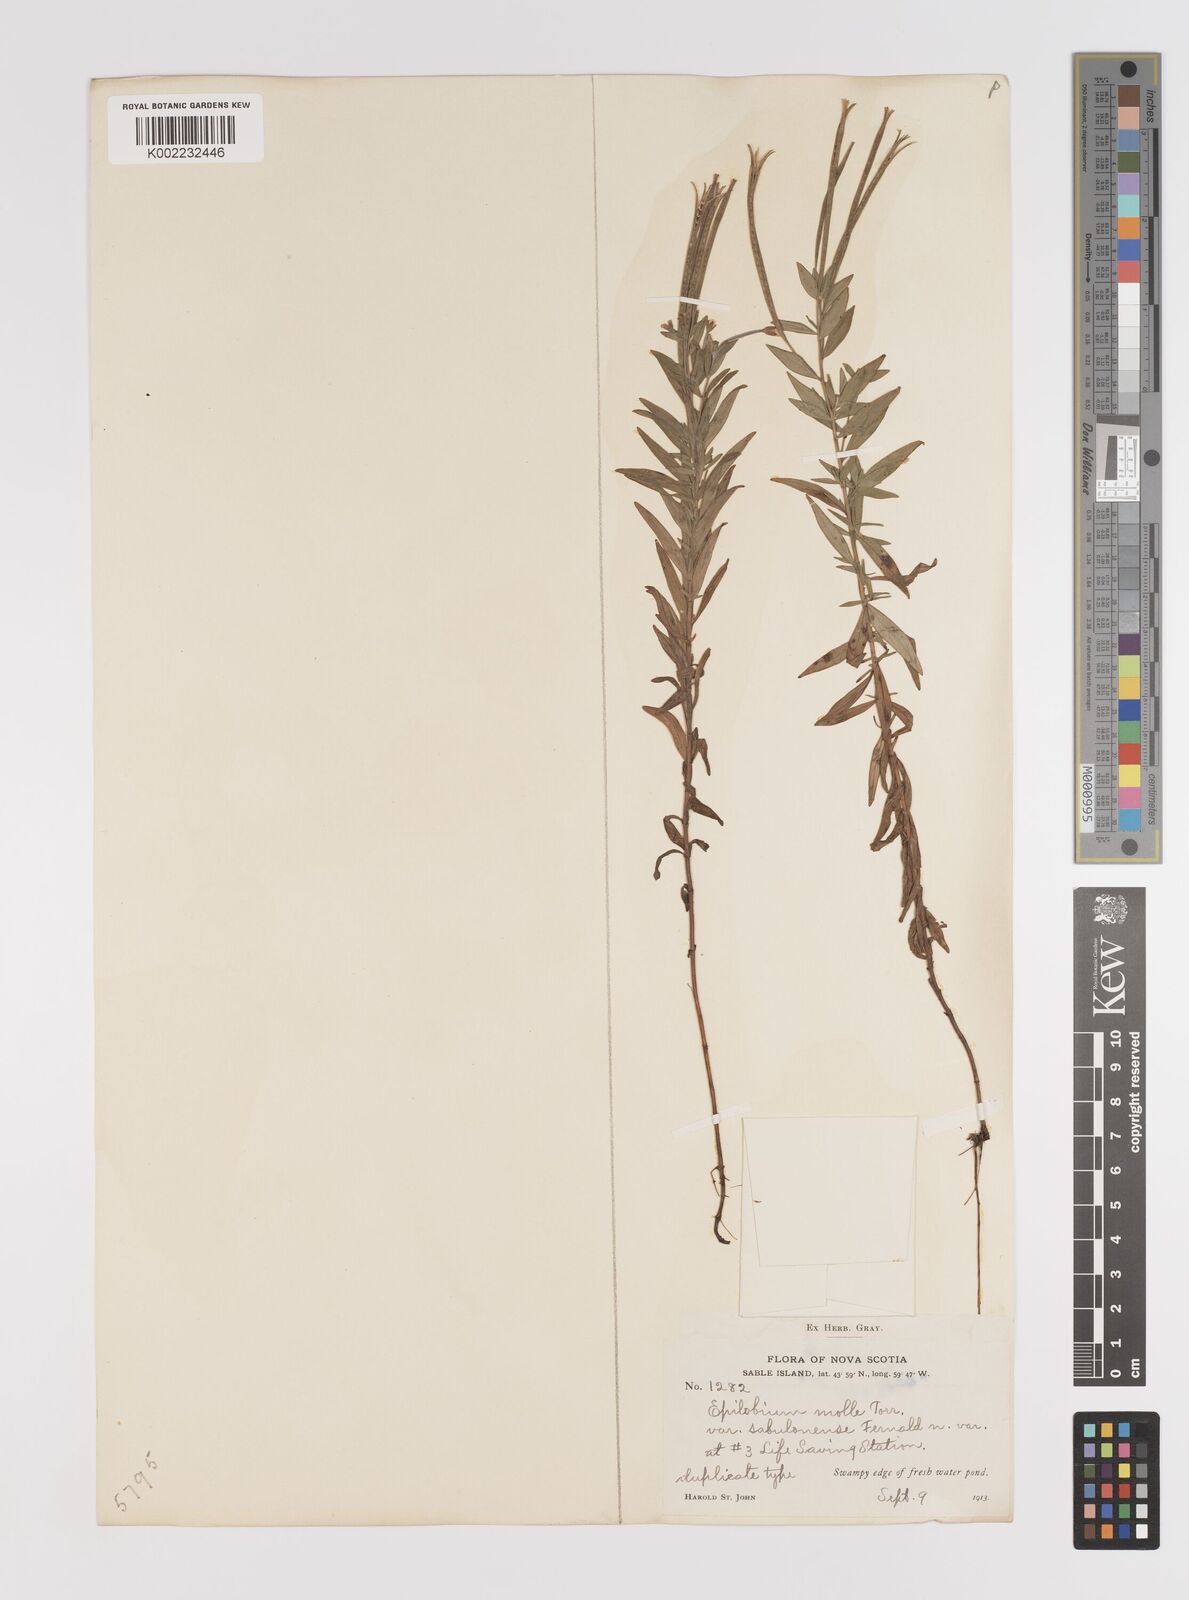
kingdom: Plantae
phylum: Tracheophyta
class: Magnoliopsida
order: Myrtales
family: Onagraceae
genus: Epilobium
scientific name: Epilobium densum
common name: Downy willowherb
